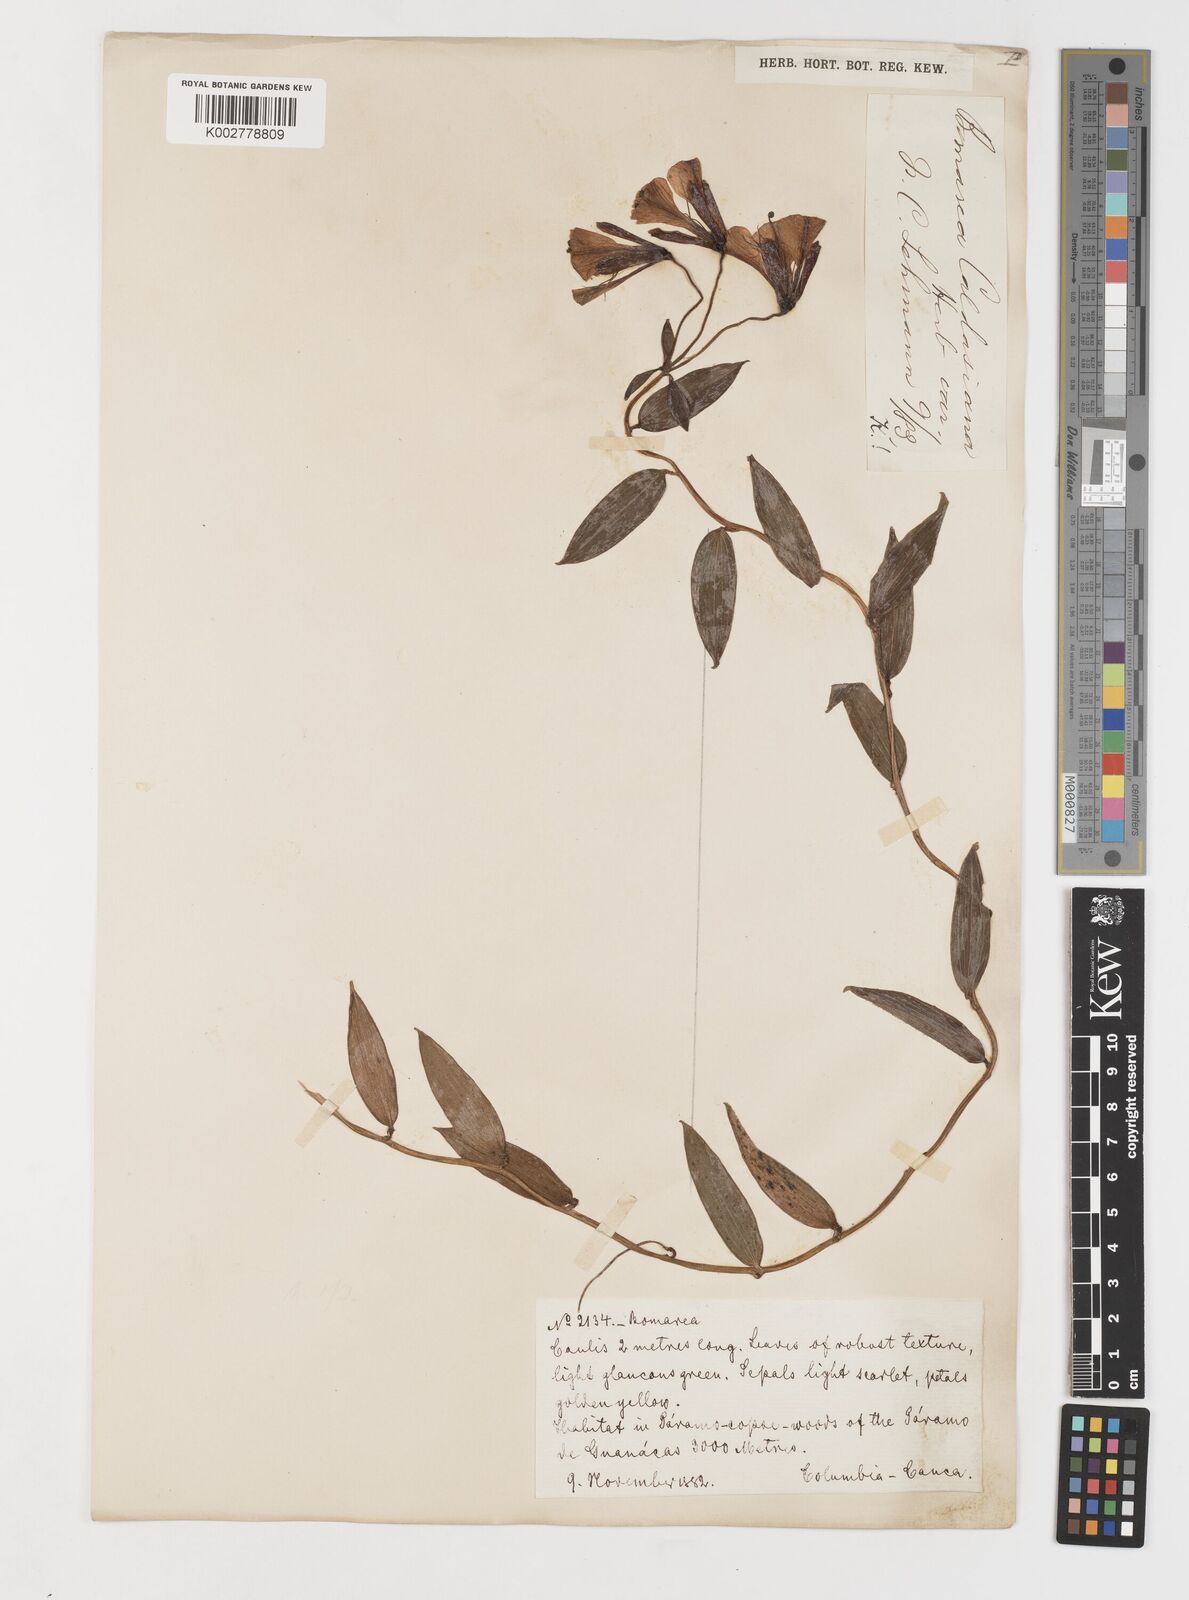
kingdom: Plantae
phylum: Tracheophyta
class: Liliopsida
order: Liliales
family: Alstroemeriaceae
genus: Bomarea
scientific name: Bomarea hirsuta
